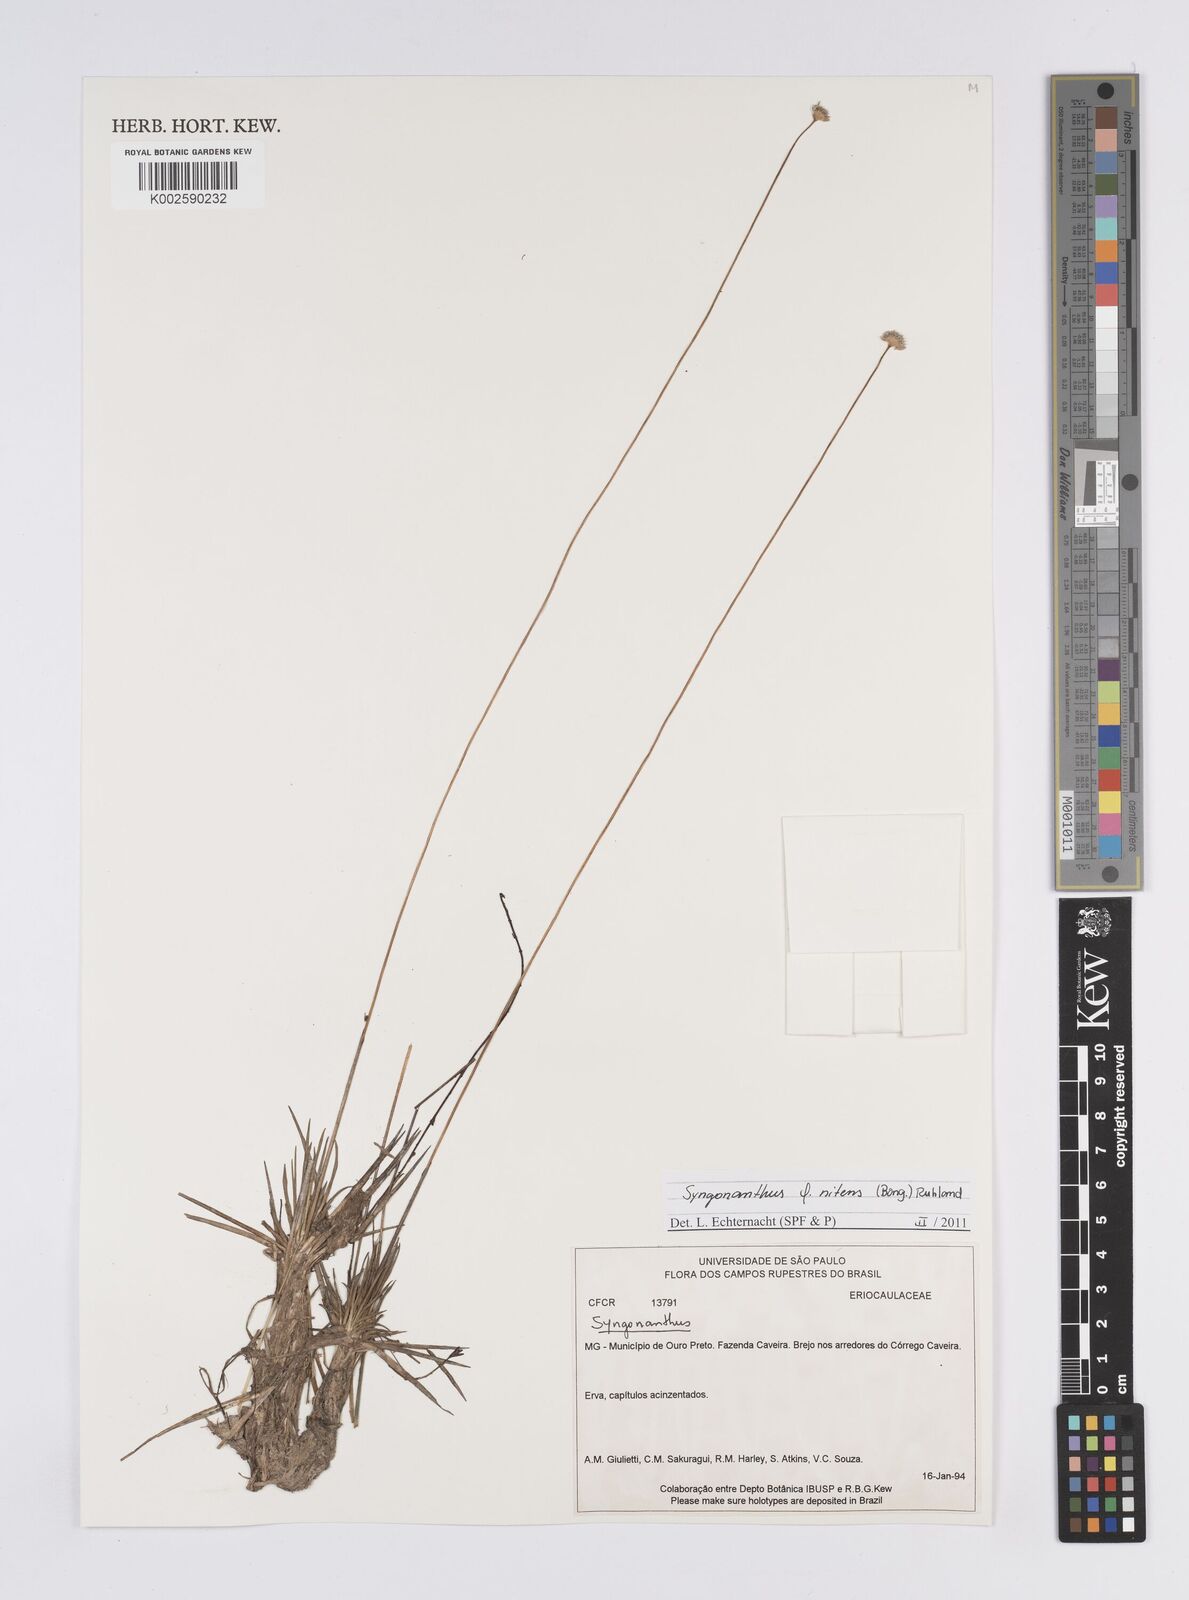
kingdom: Plantae
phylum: Tracheophyta
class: Liliopsida
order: Poales
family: Eriocaulaceae
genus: Syngonanthus
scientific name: Syngonanthus nitens
